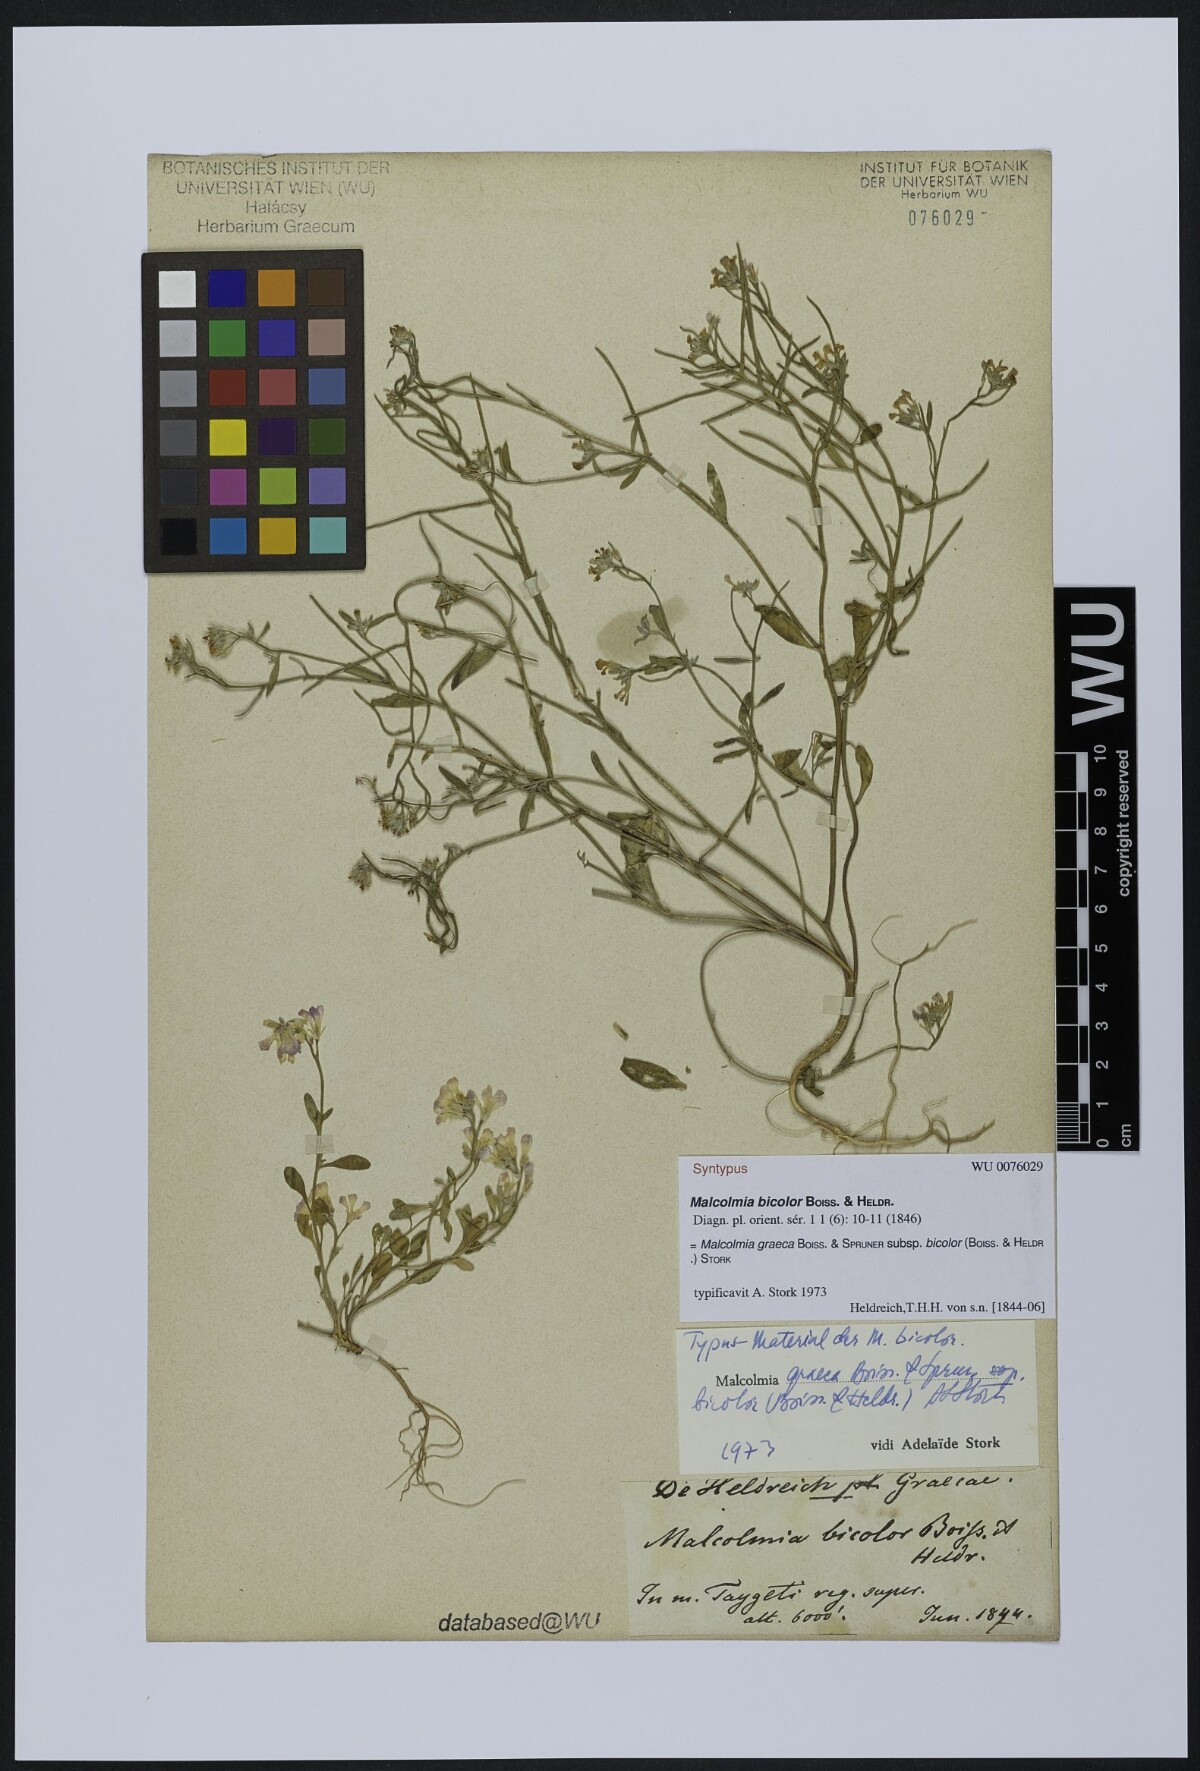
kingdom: Plantae
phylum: Tracheophyta
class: Magnoliopsida
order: Brassicales
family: Brassicaceae
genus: Malcolmia
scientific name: Malcolmia graeca
